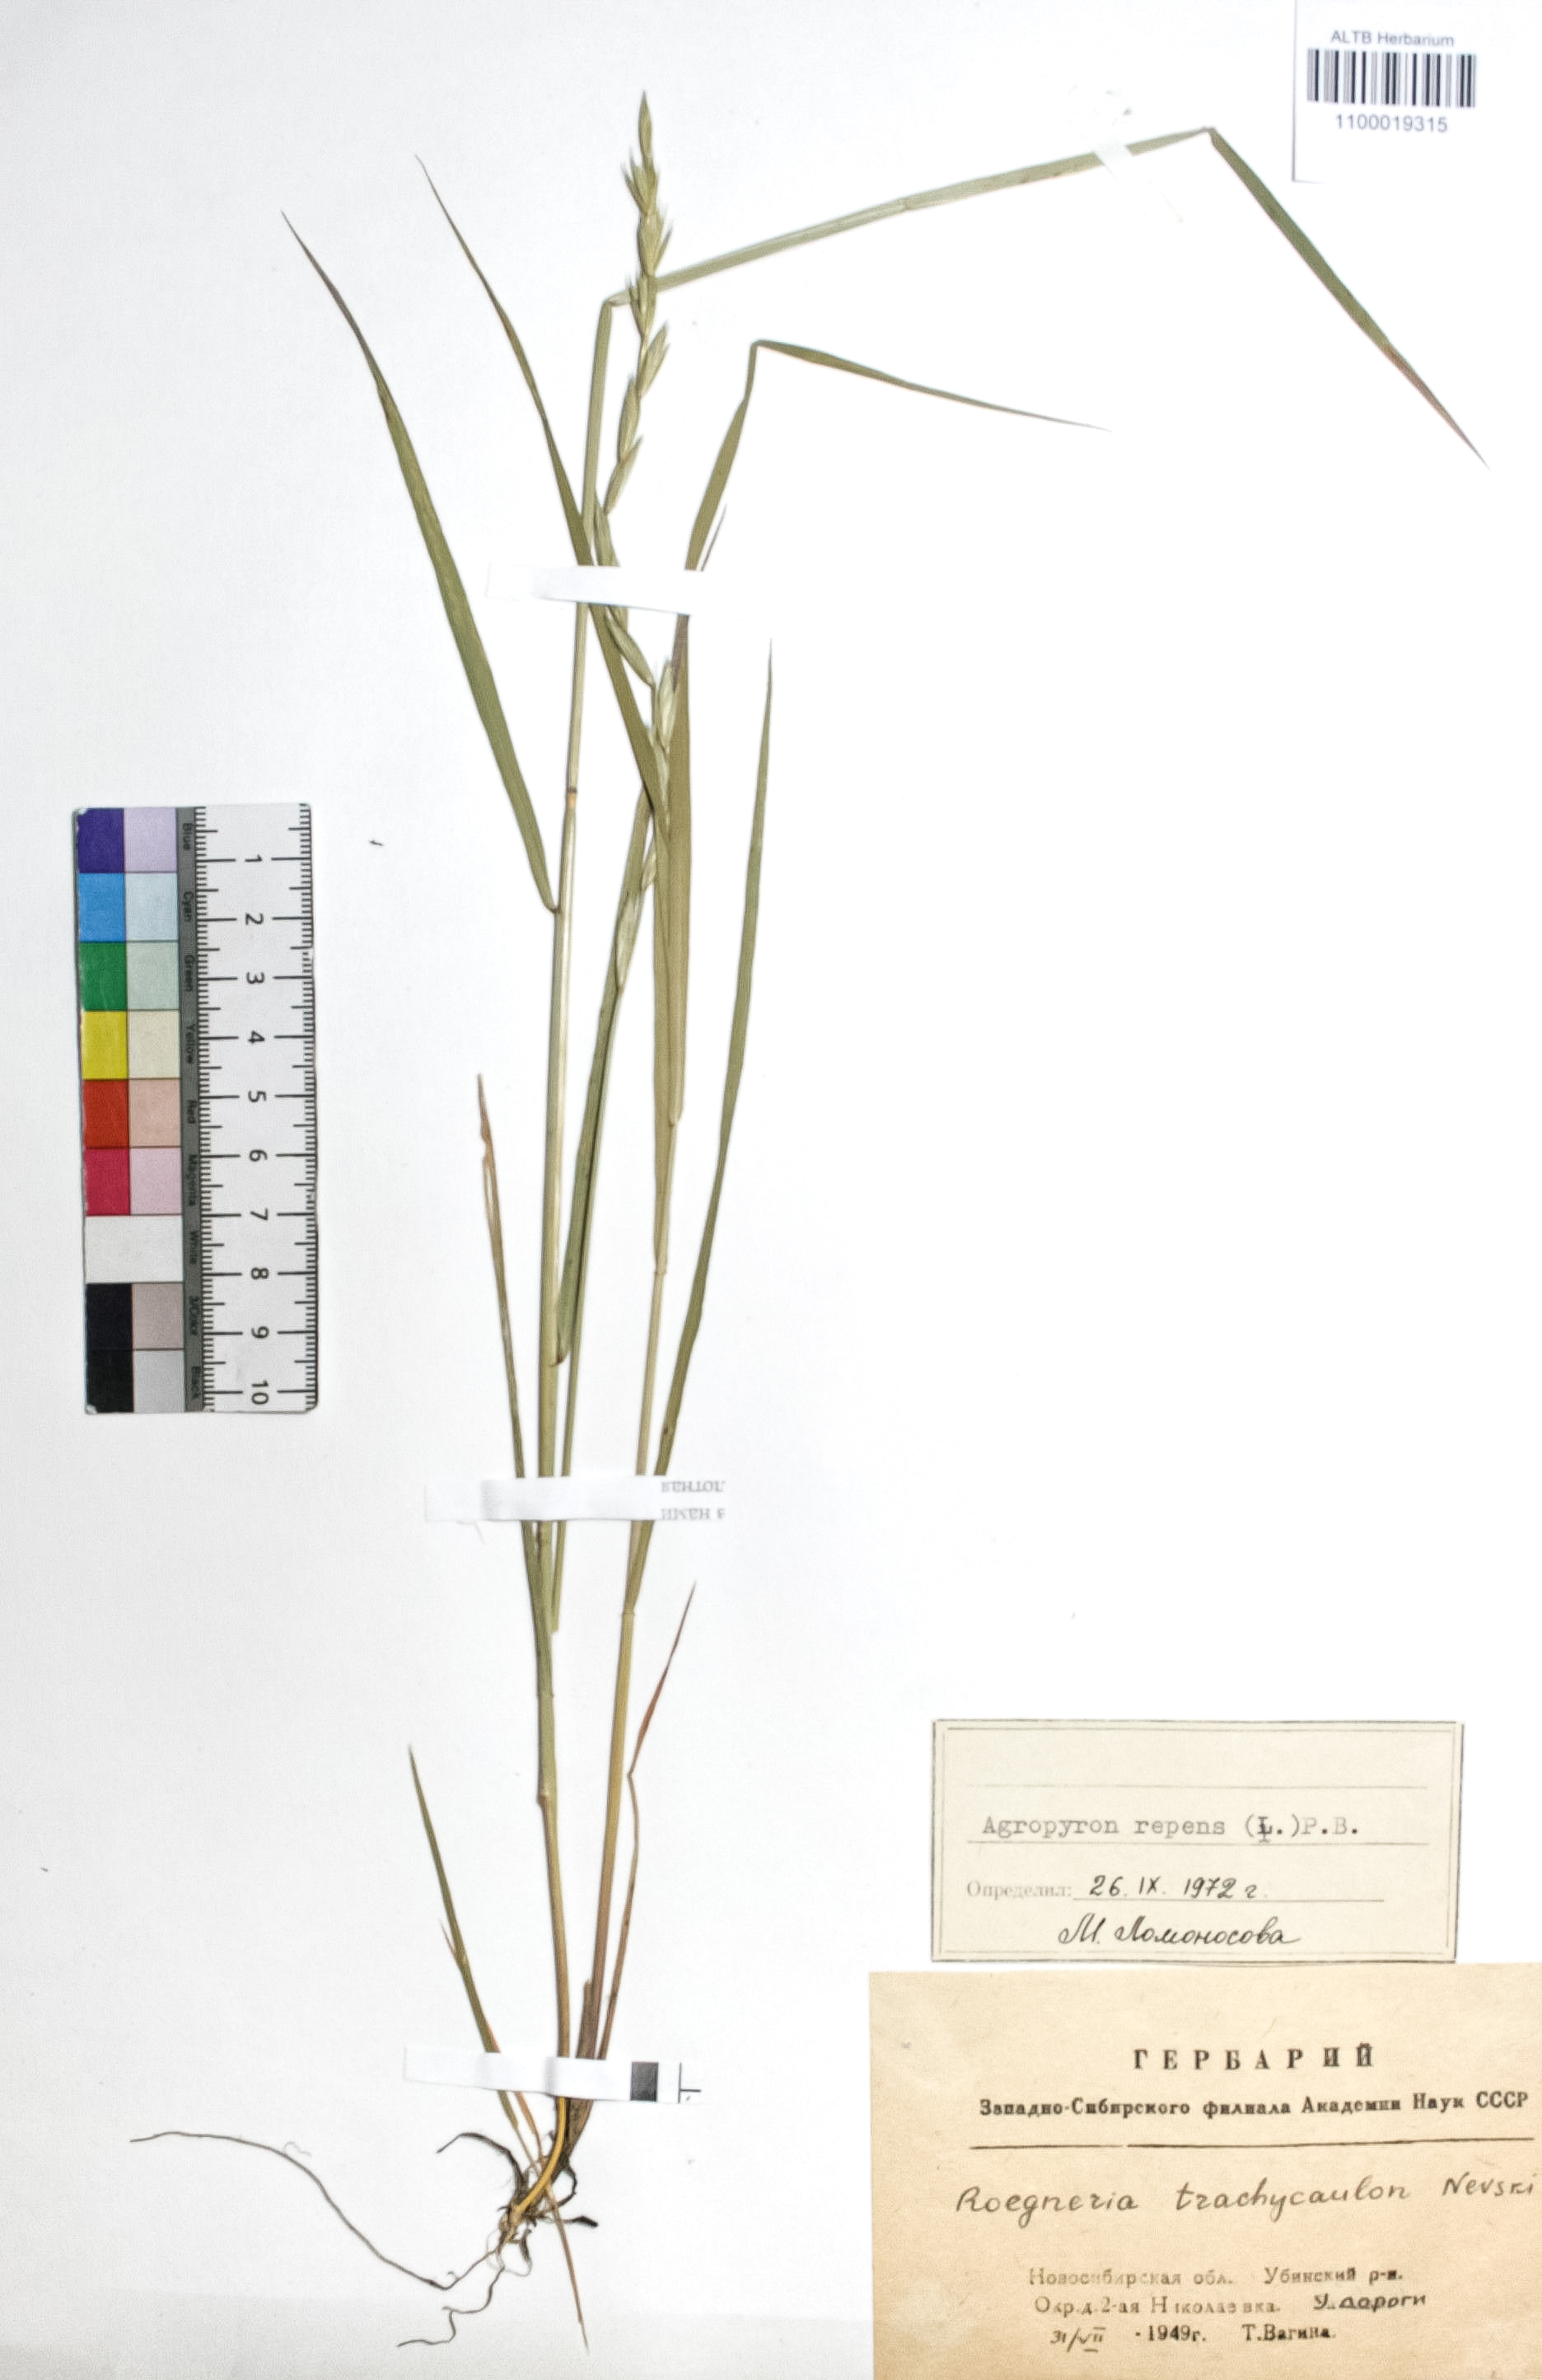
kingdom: Plantae
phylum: Tracheophyta
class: Liliopsida
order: Poales
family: Poaceae
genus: Elymus
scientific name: Elymus repens
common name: Quackgrass
